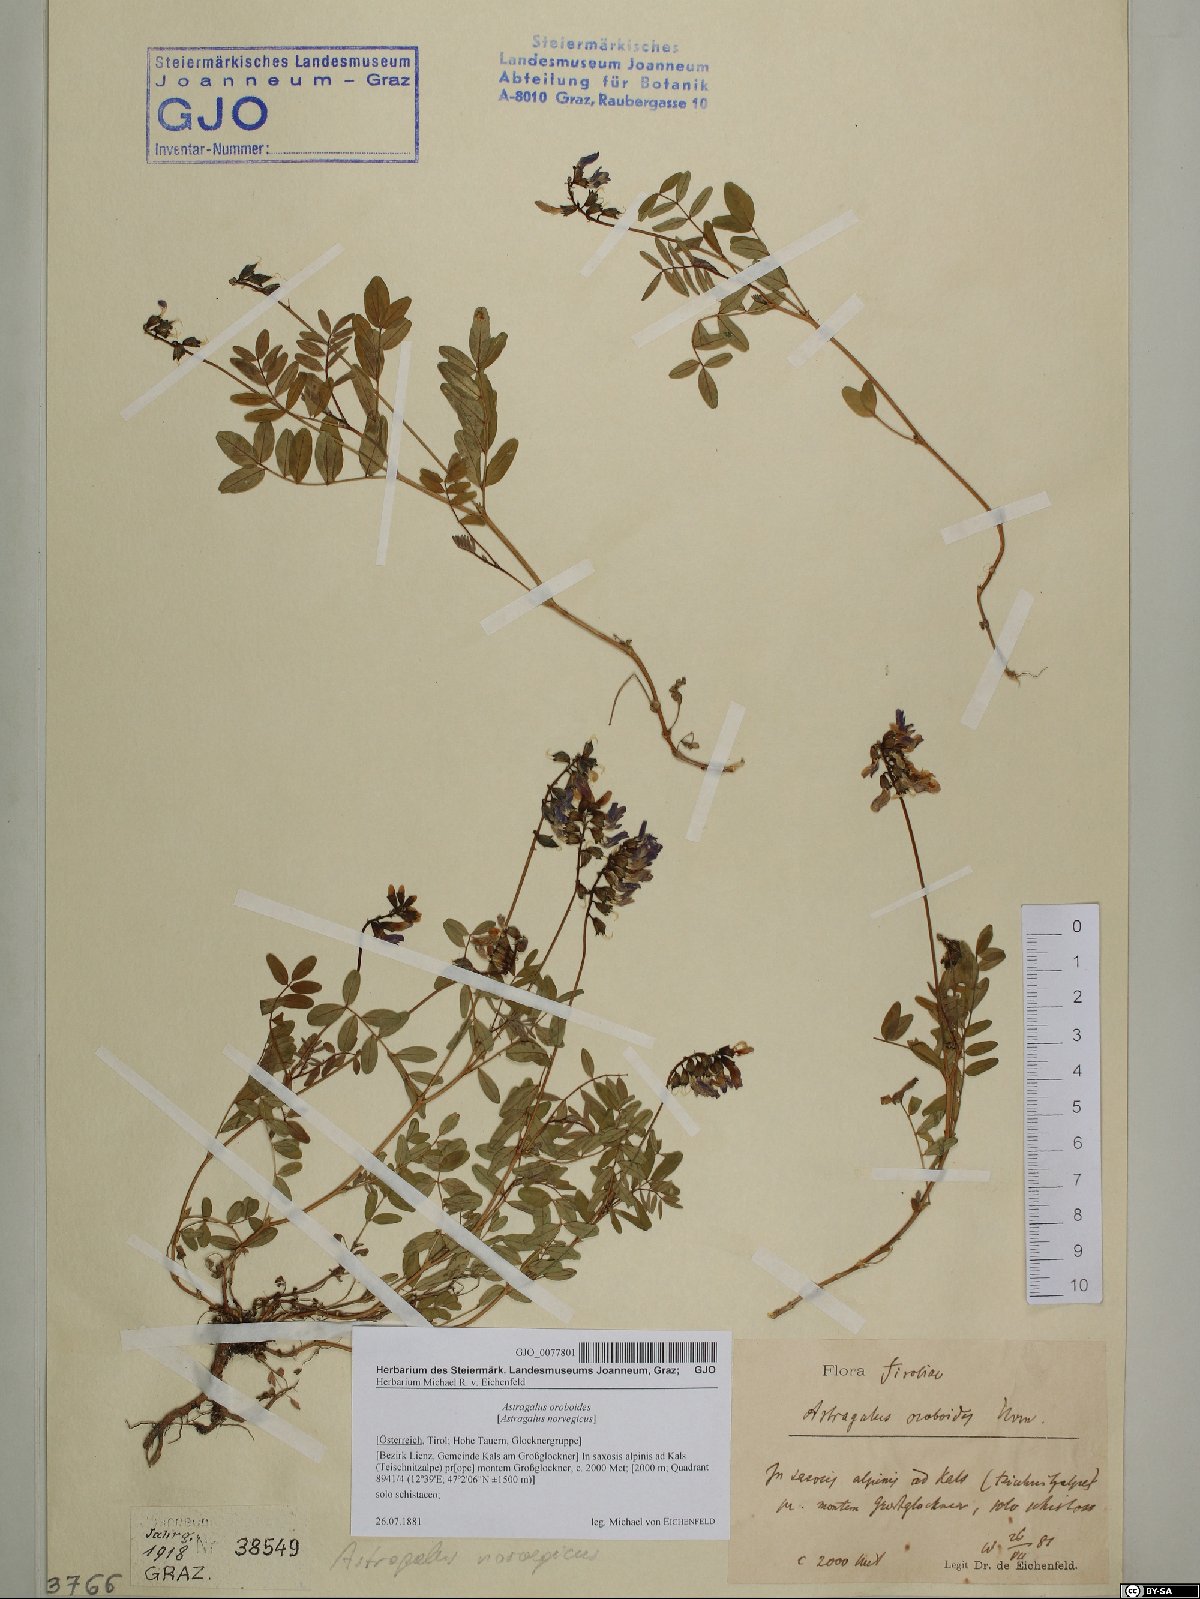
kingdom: Plantae
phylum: Tracheophyta
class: Magnoliopsida
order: Fabales
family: Fabaceae
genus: Astragalus
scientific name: Astragalus norvegicus
